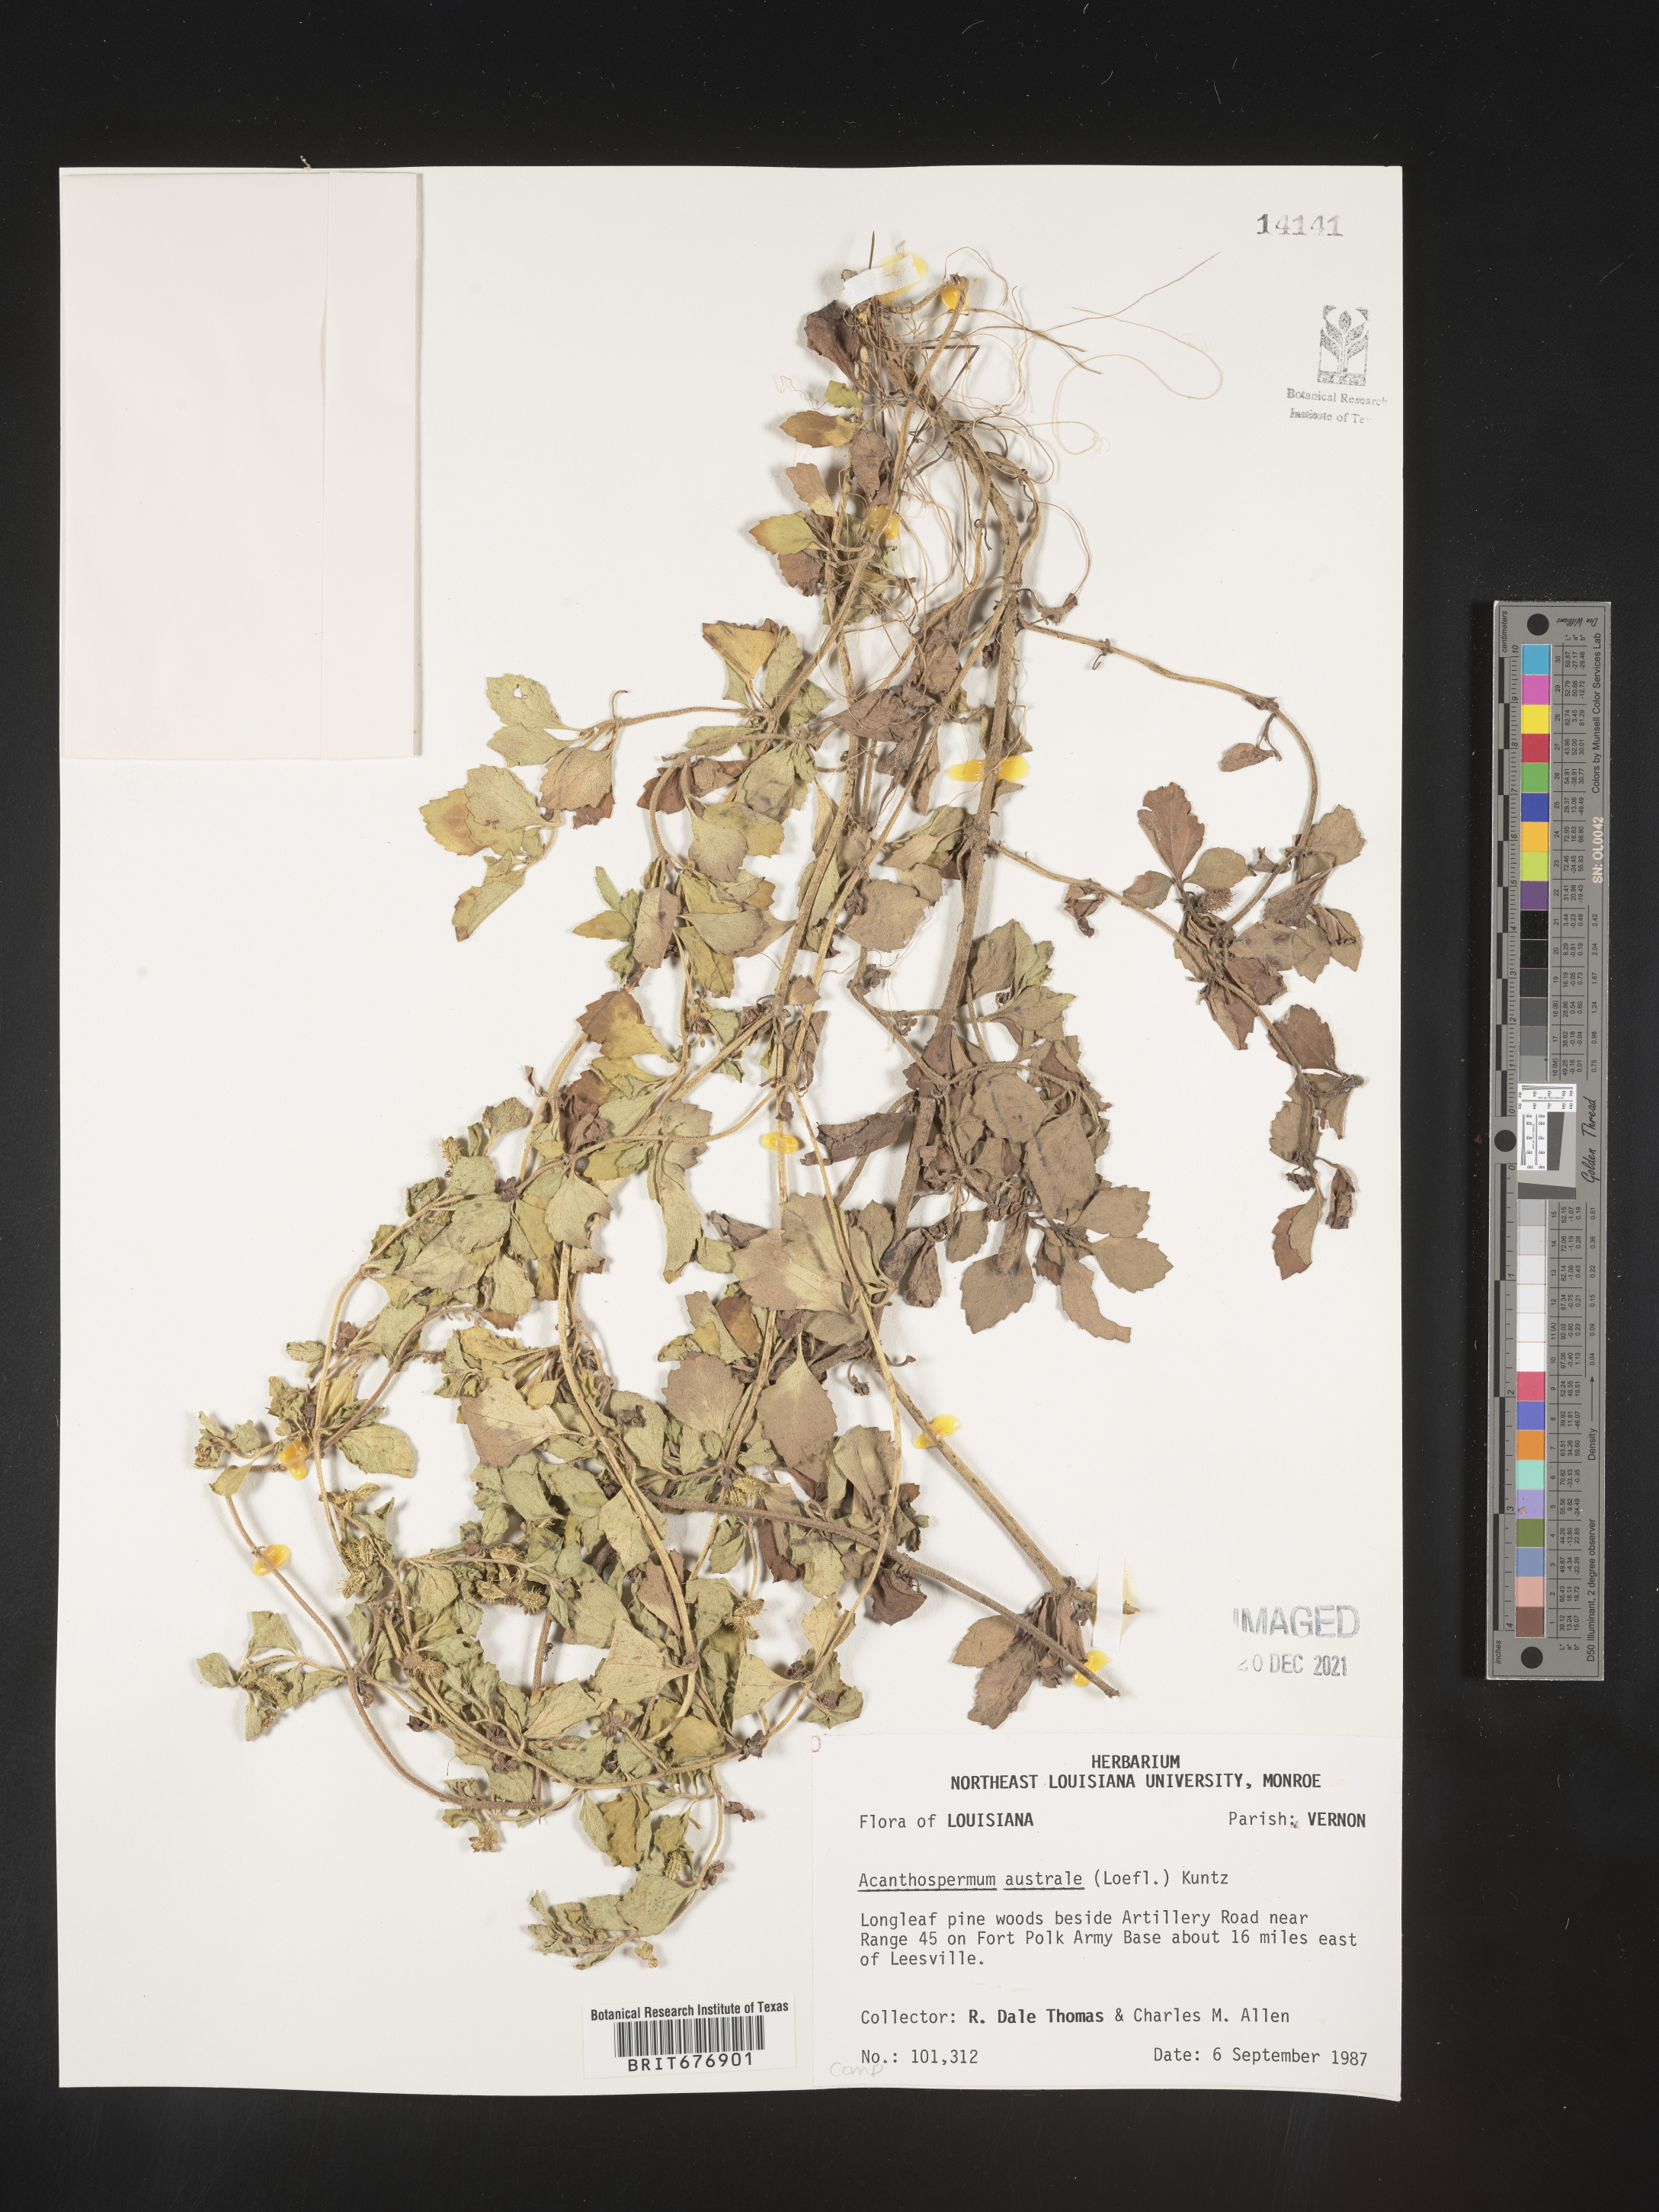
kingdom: Plantae
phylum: Tracheophyta
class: Magnoliopsida
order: Asterales
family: Asteraceae
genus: Acanthospermum
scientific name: Acanthospermum australe
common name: Paraguayan starbur
